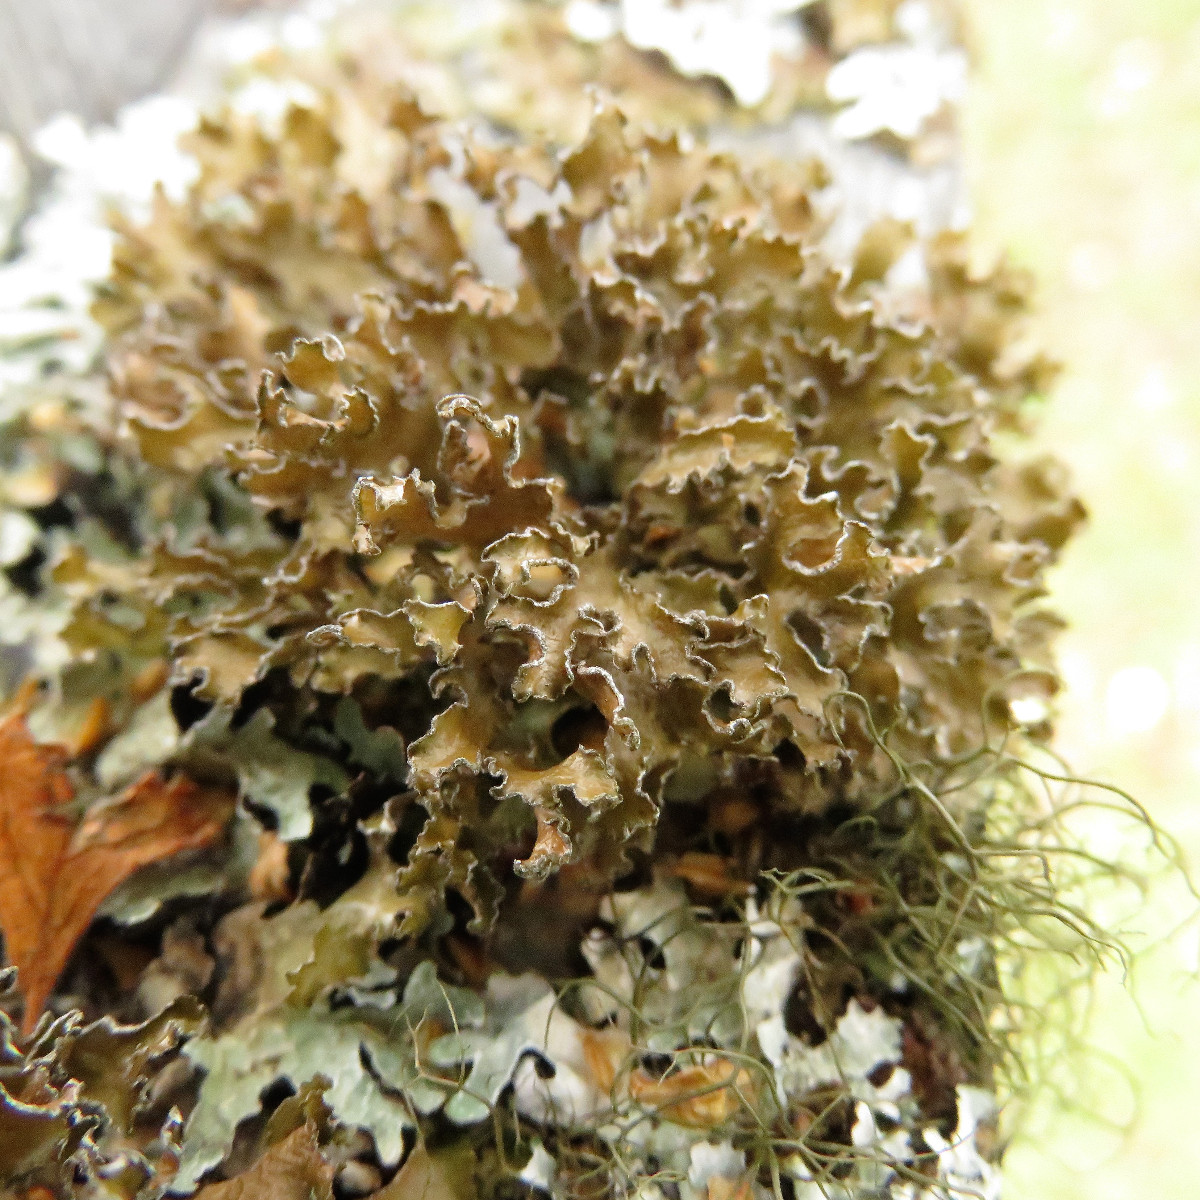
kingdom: Fungi
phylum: Ascomycota
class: Lecanoromycetes
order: Lecanorales
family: Parmeliaceae
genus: Nephromopsis
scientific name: Nephromopsis chlorophylla
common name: olivenbrun kruslav
